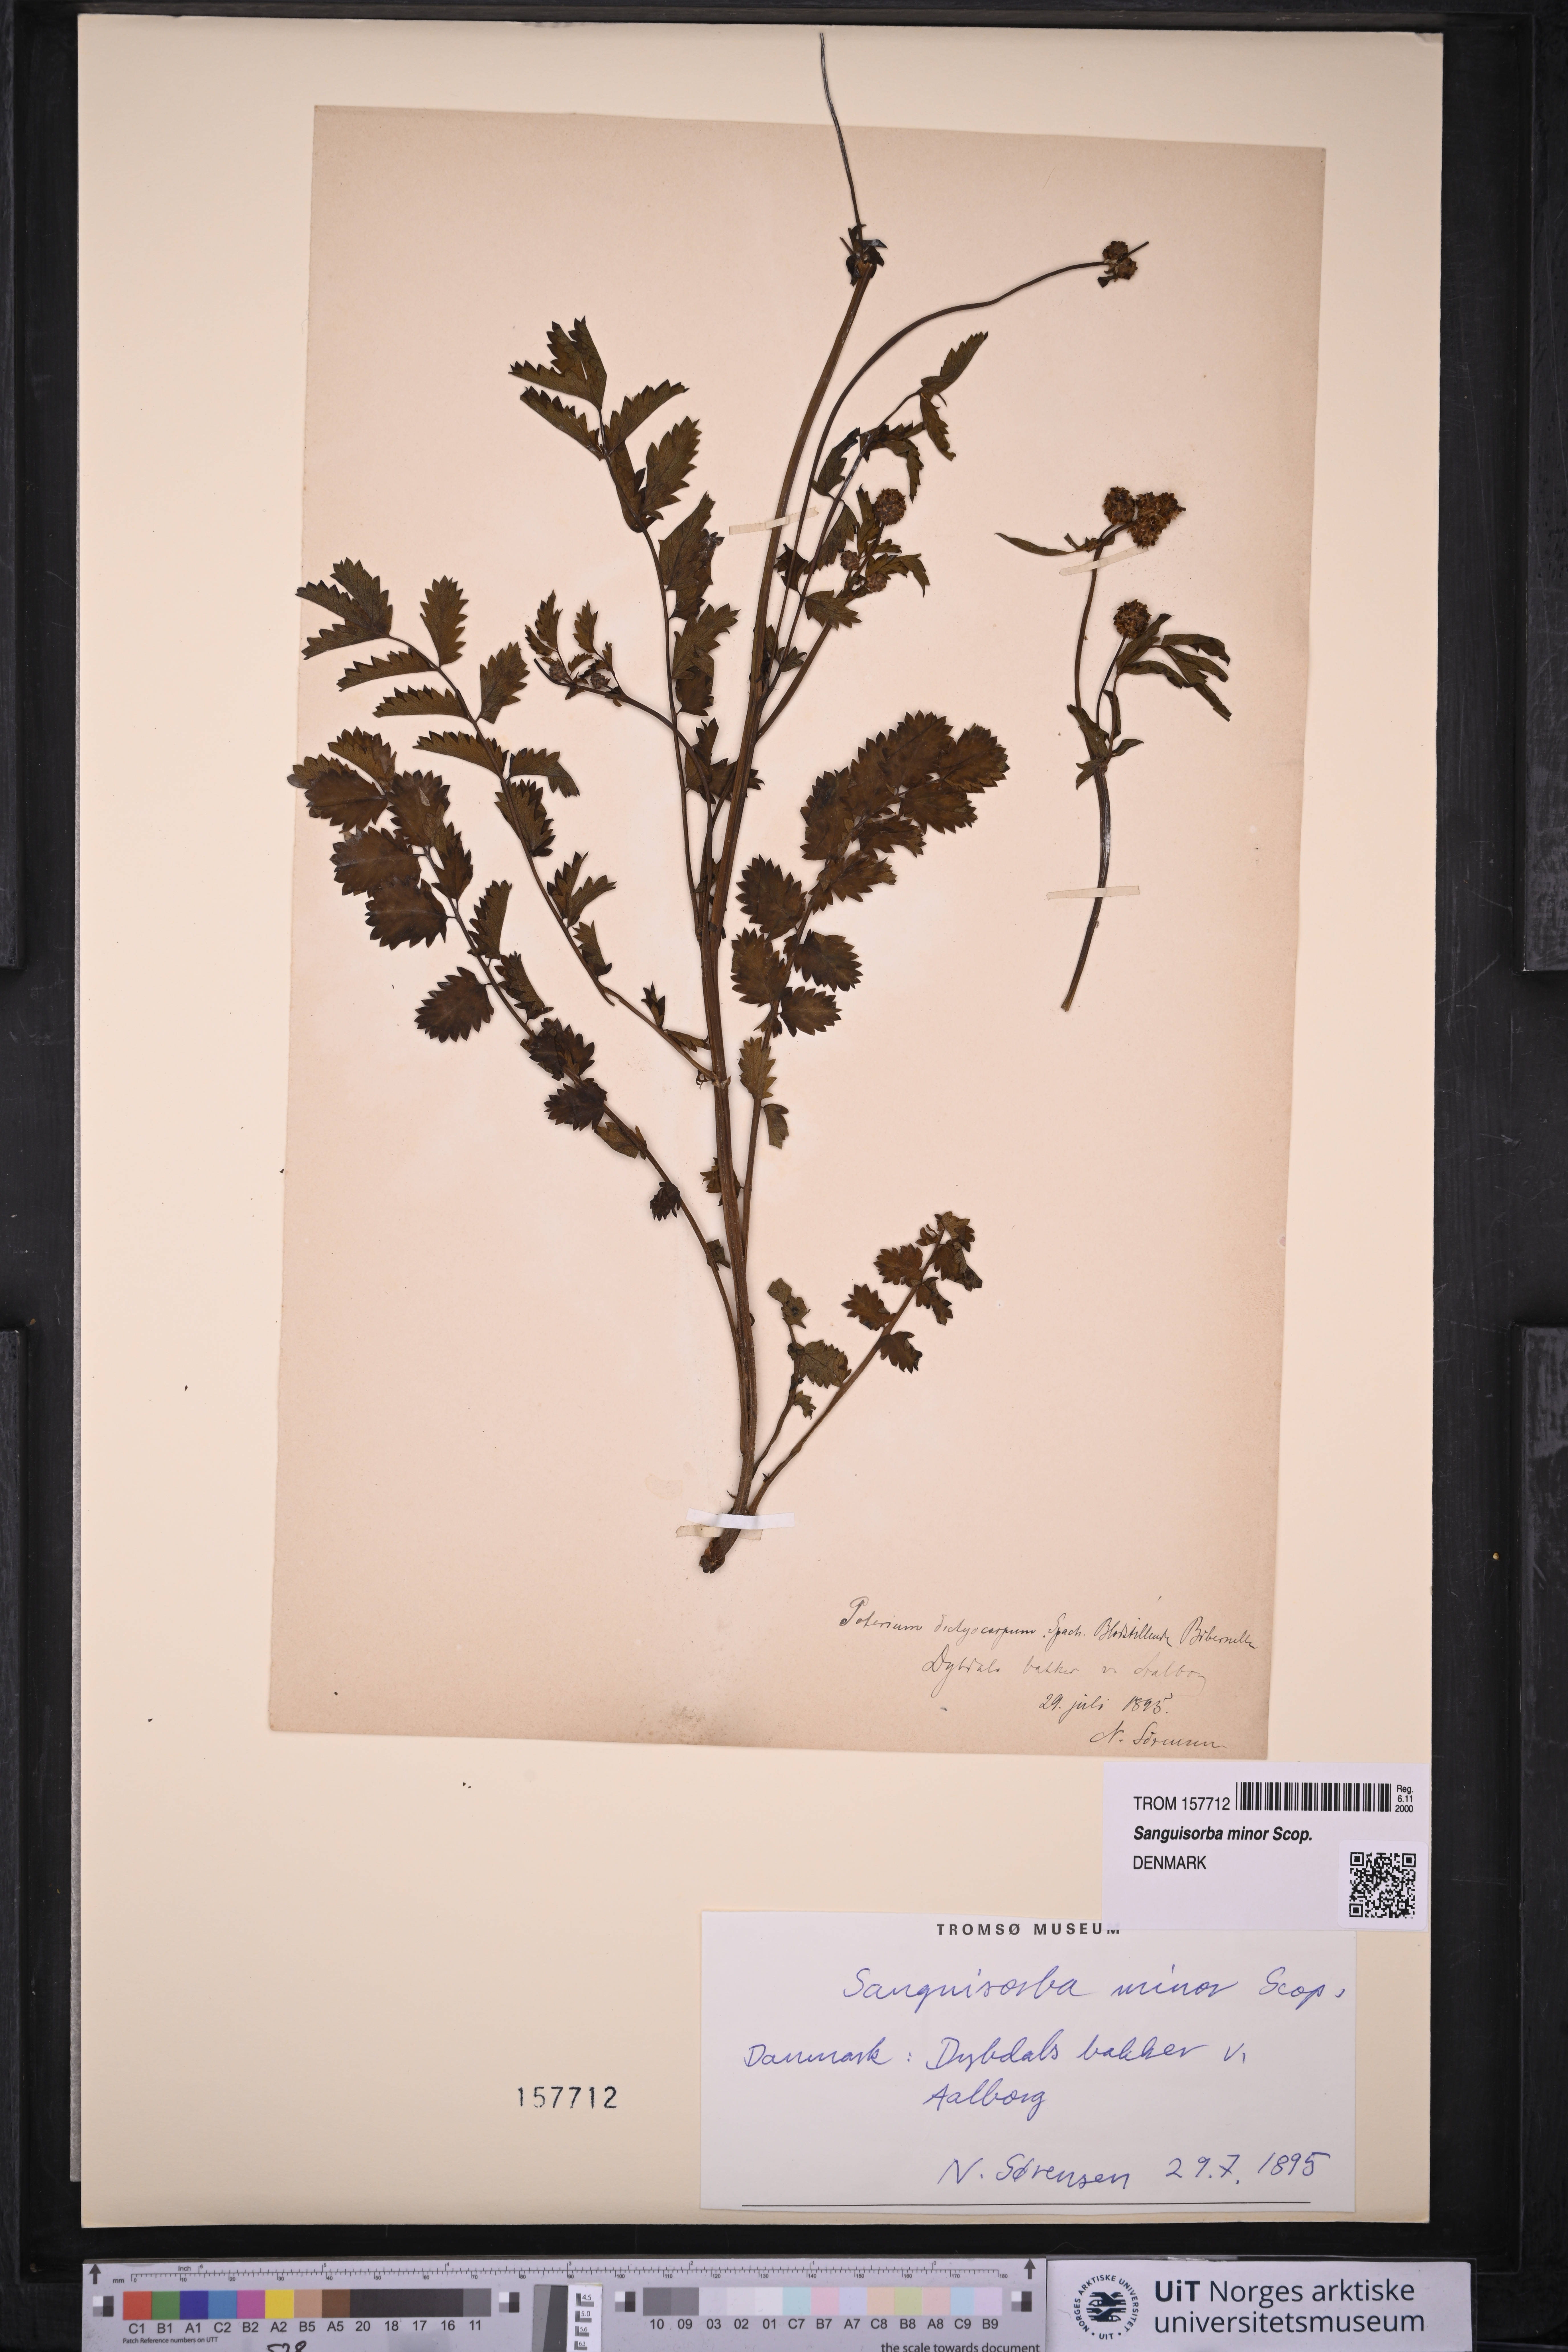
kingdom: Plantae
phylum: Tracheophyta
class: Magnoliopsida
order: Rosales
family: Rosaceae
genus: Poterium
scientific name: Poterium sanguisorba
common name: Salad burnet
